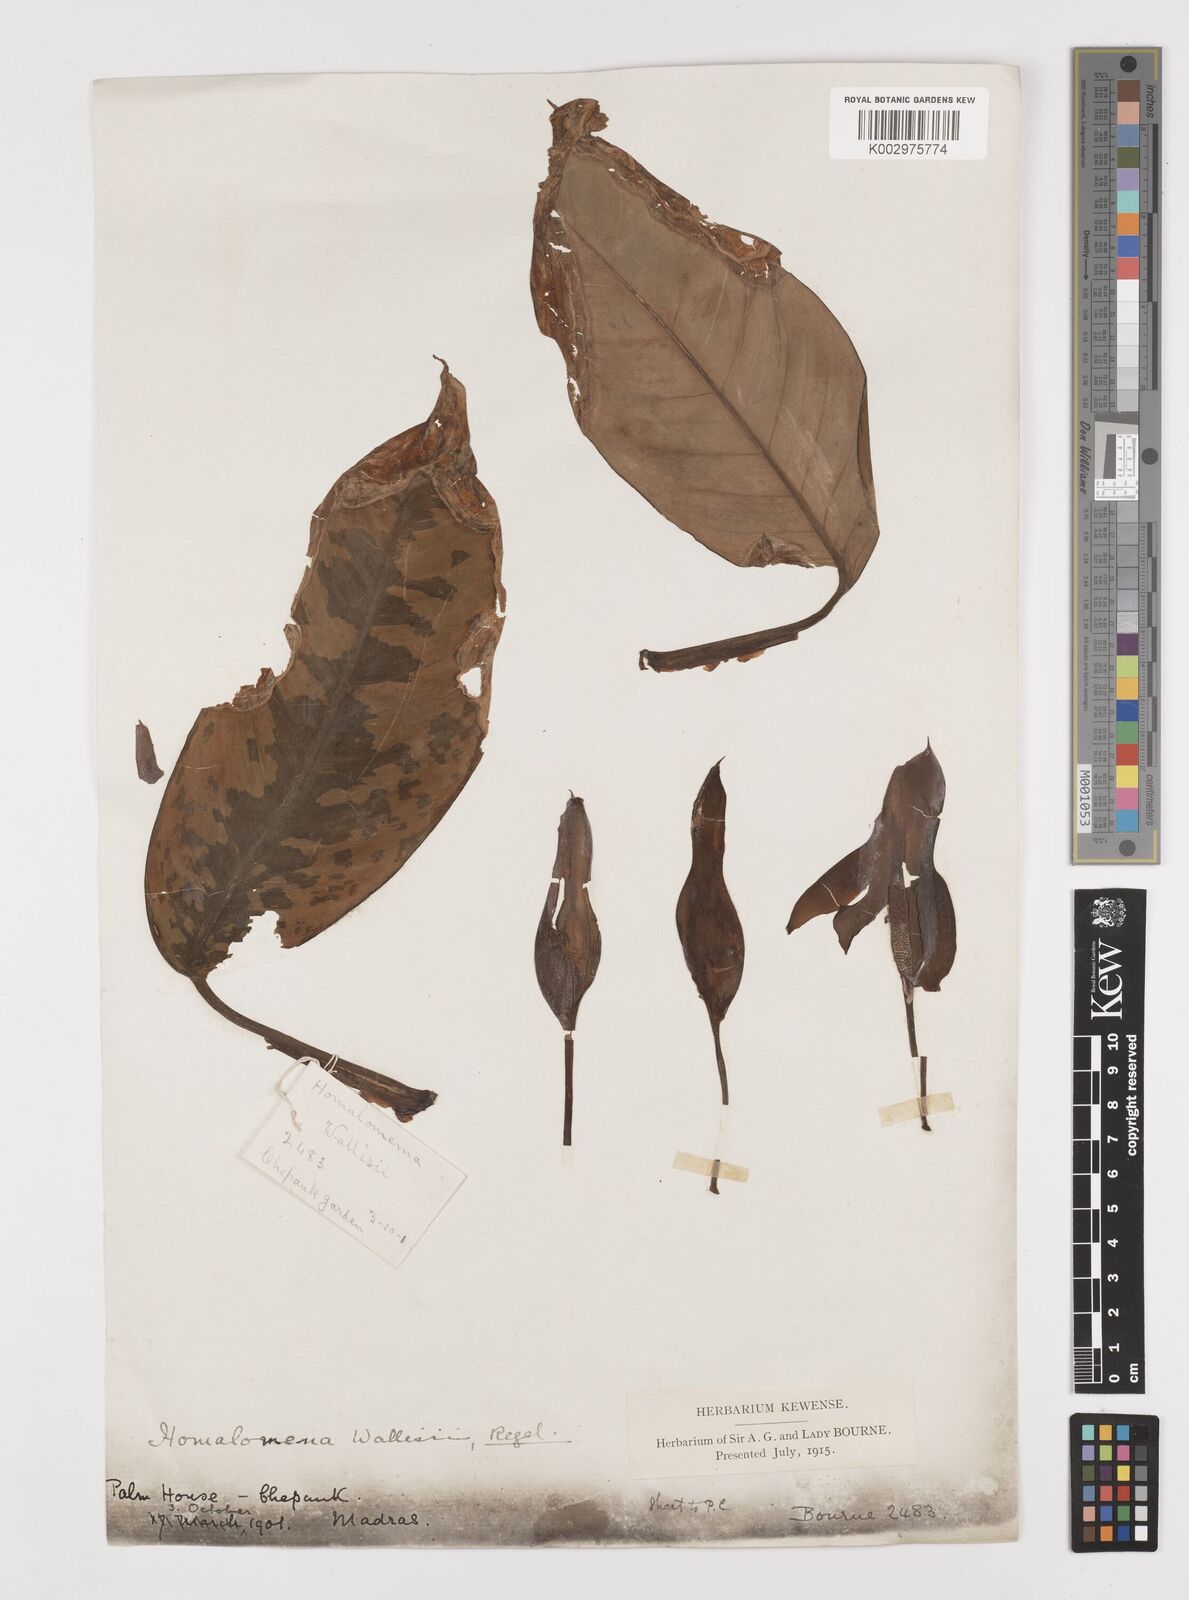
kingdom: Plantae
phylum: Tracheophyta
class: Liliopsida
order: Alismatales
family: Araceae
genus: Adelonema
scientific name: Adelonema wallisii
